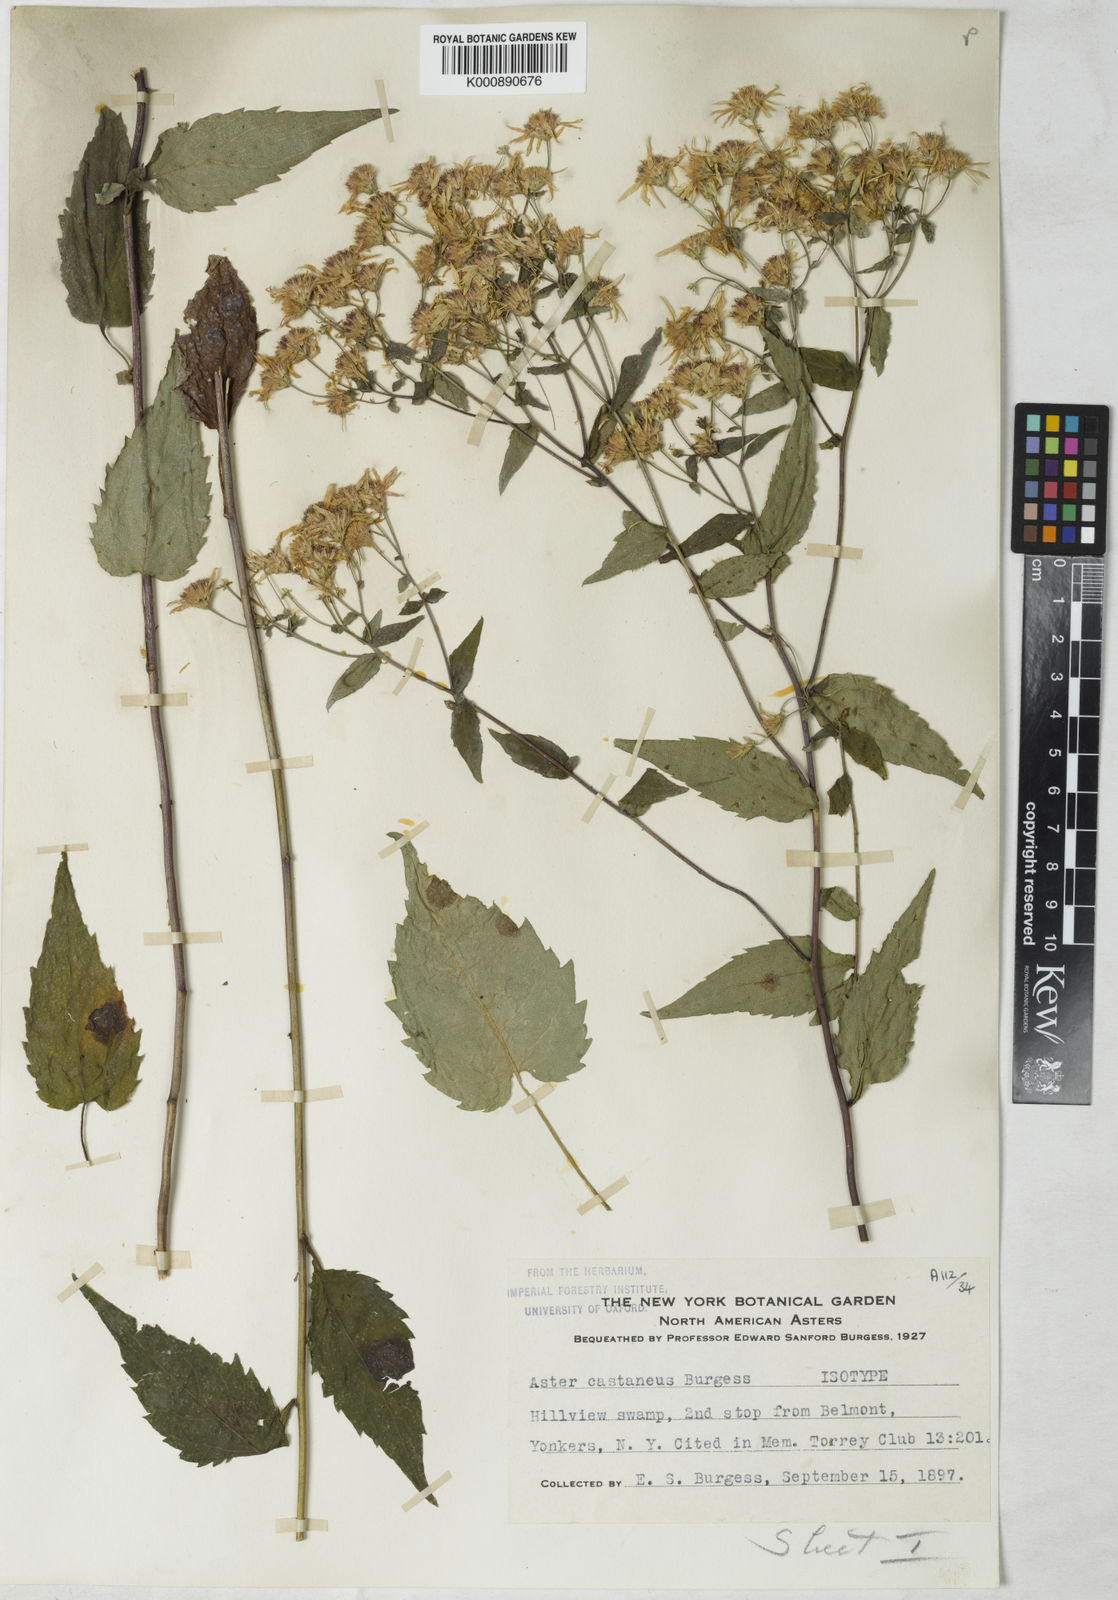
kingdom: Plantae
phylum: Tracheophyta
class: Magnoliopsida
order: Asterales
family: Asteraceae
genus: Eurybia
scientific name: Eurybia divaricata
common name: White wood aster
